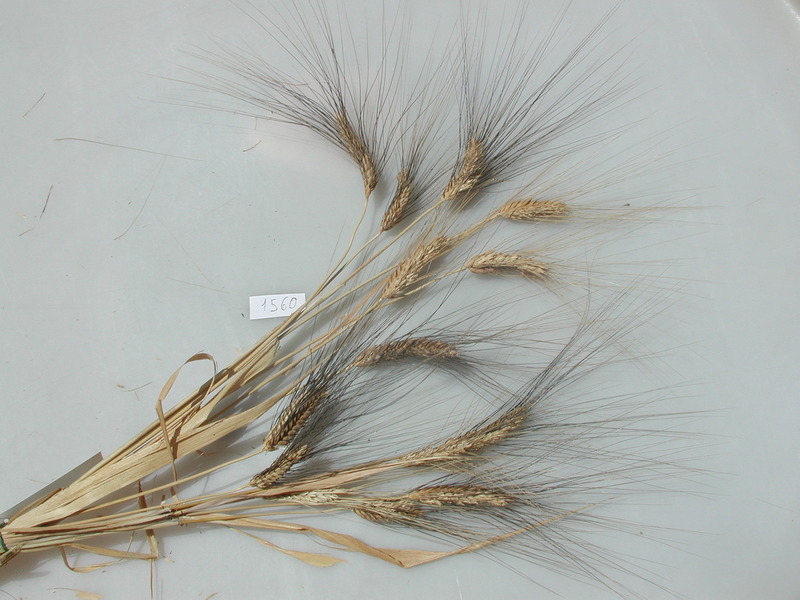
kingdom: Plantae
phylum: Tracheophyta
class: Liliopsida
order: Poales
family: Poaceae
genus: Triticum
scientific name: Triticum turgidum
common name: Wheat
